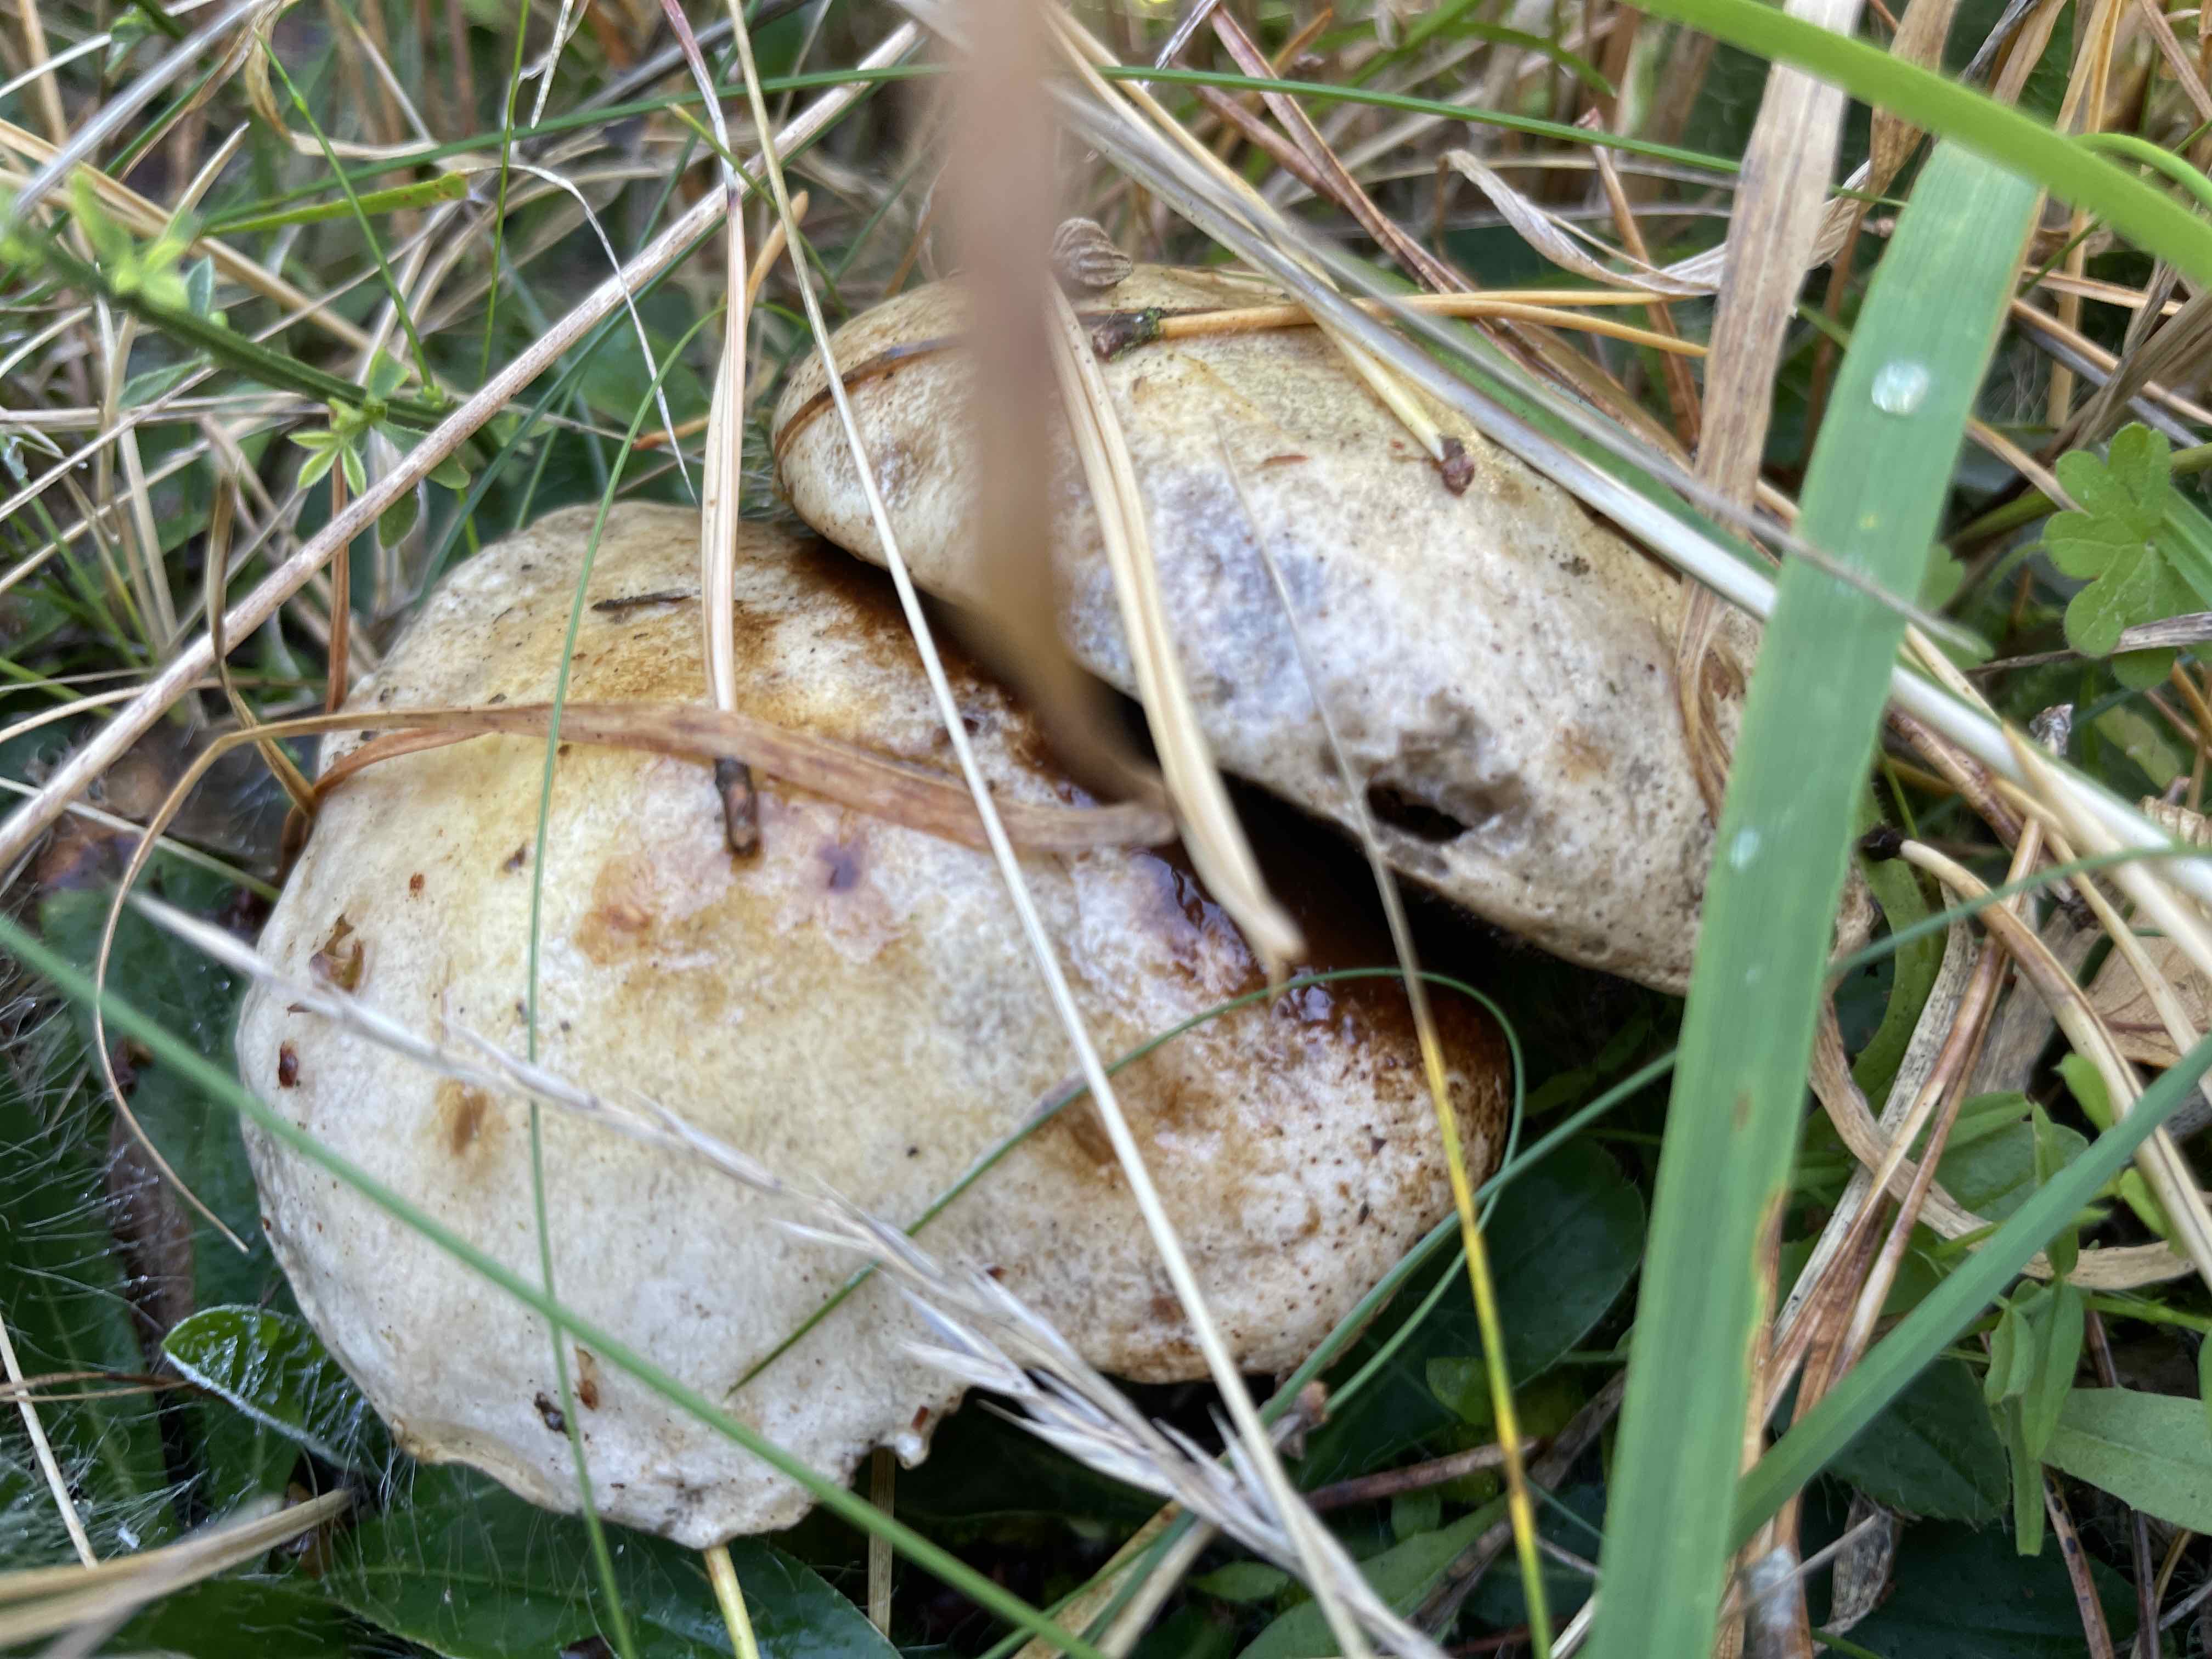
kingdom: Fungi
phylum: Basidiomycota
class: Agaricomycetes
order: Boletales
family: Suillaceae
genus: Suillus
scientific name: Suillus granulatus
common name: kornet slimrørhat
